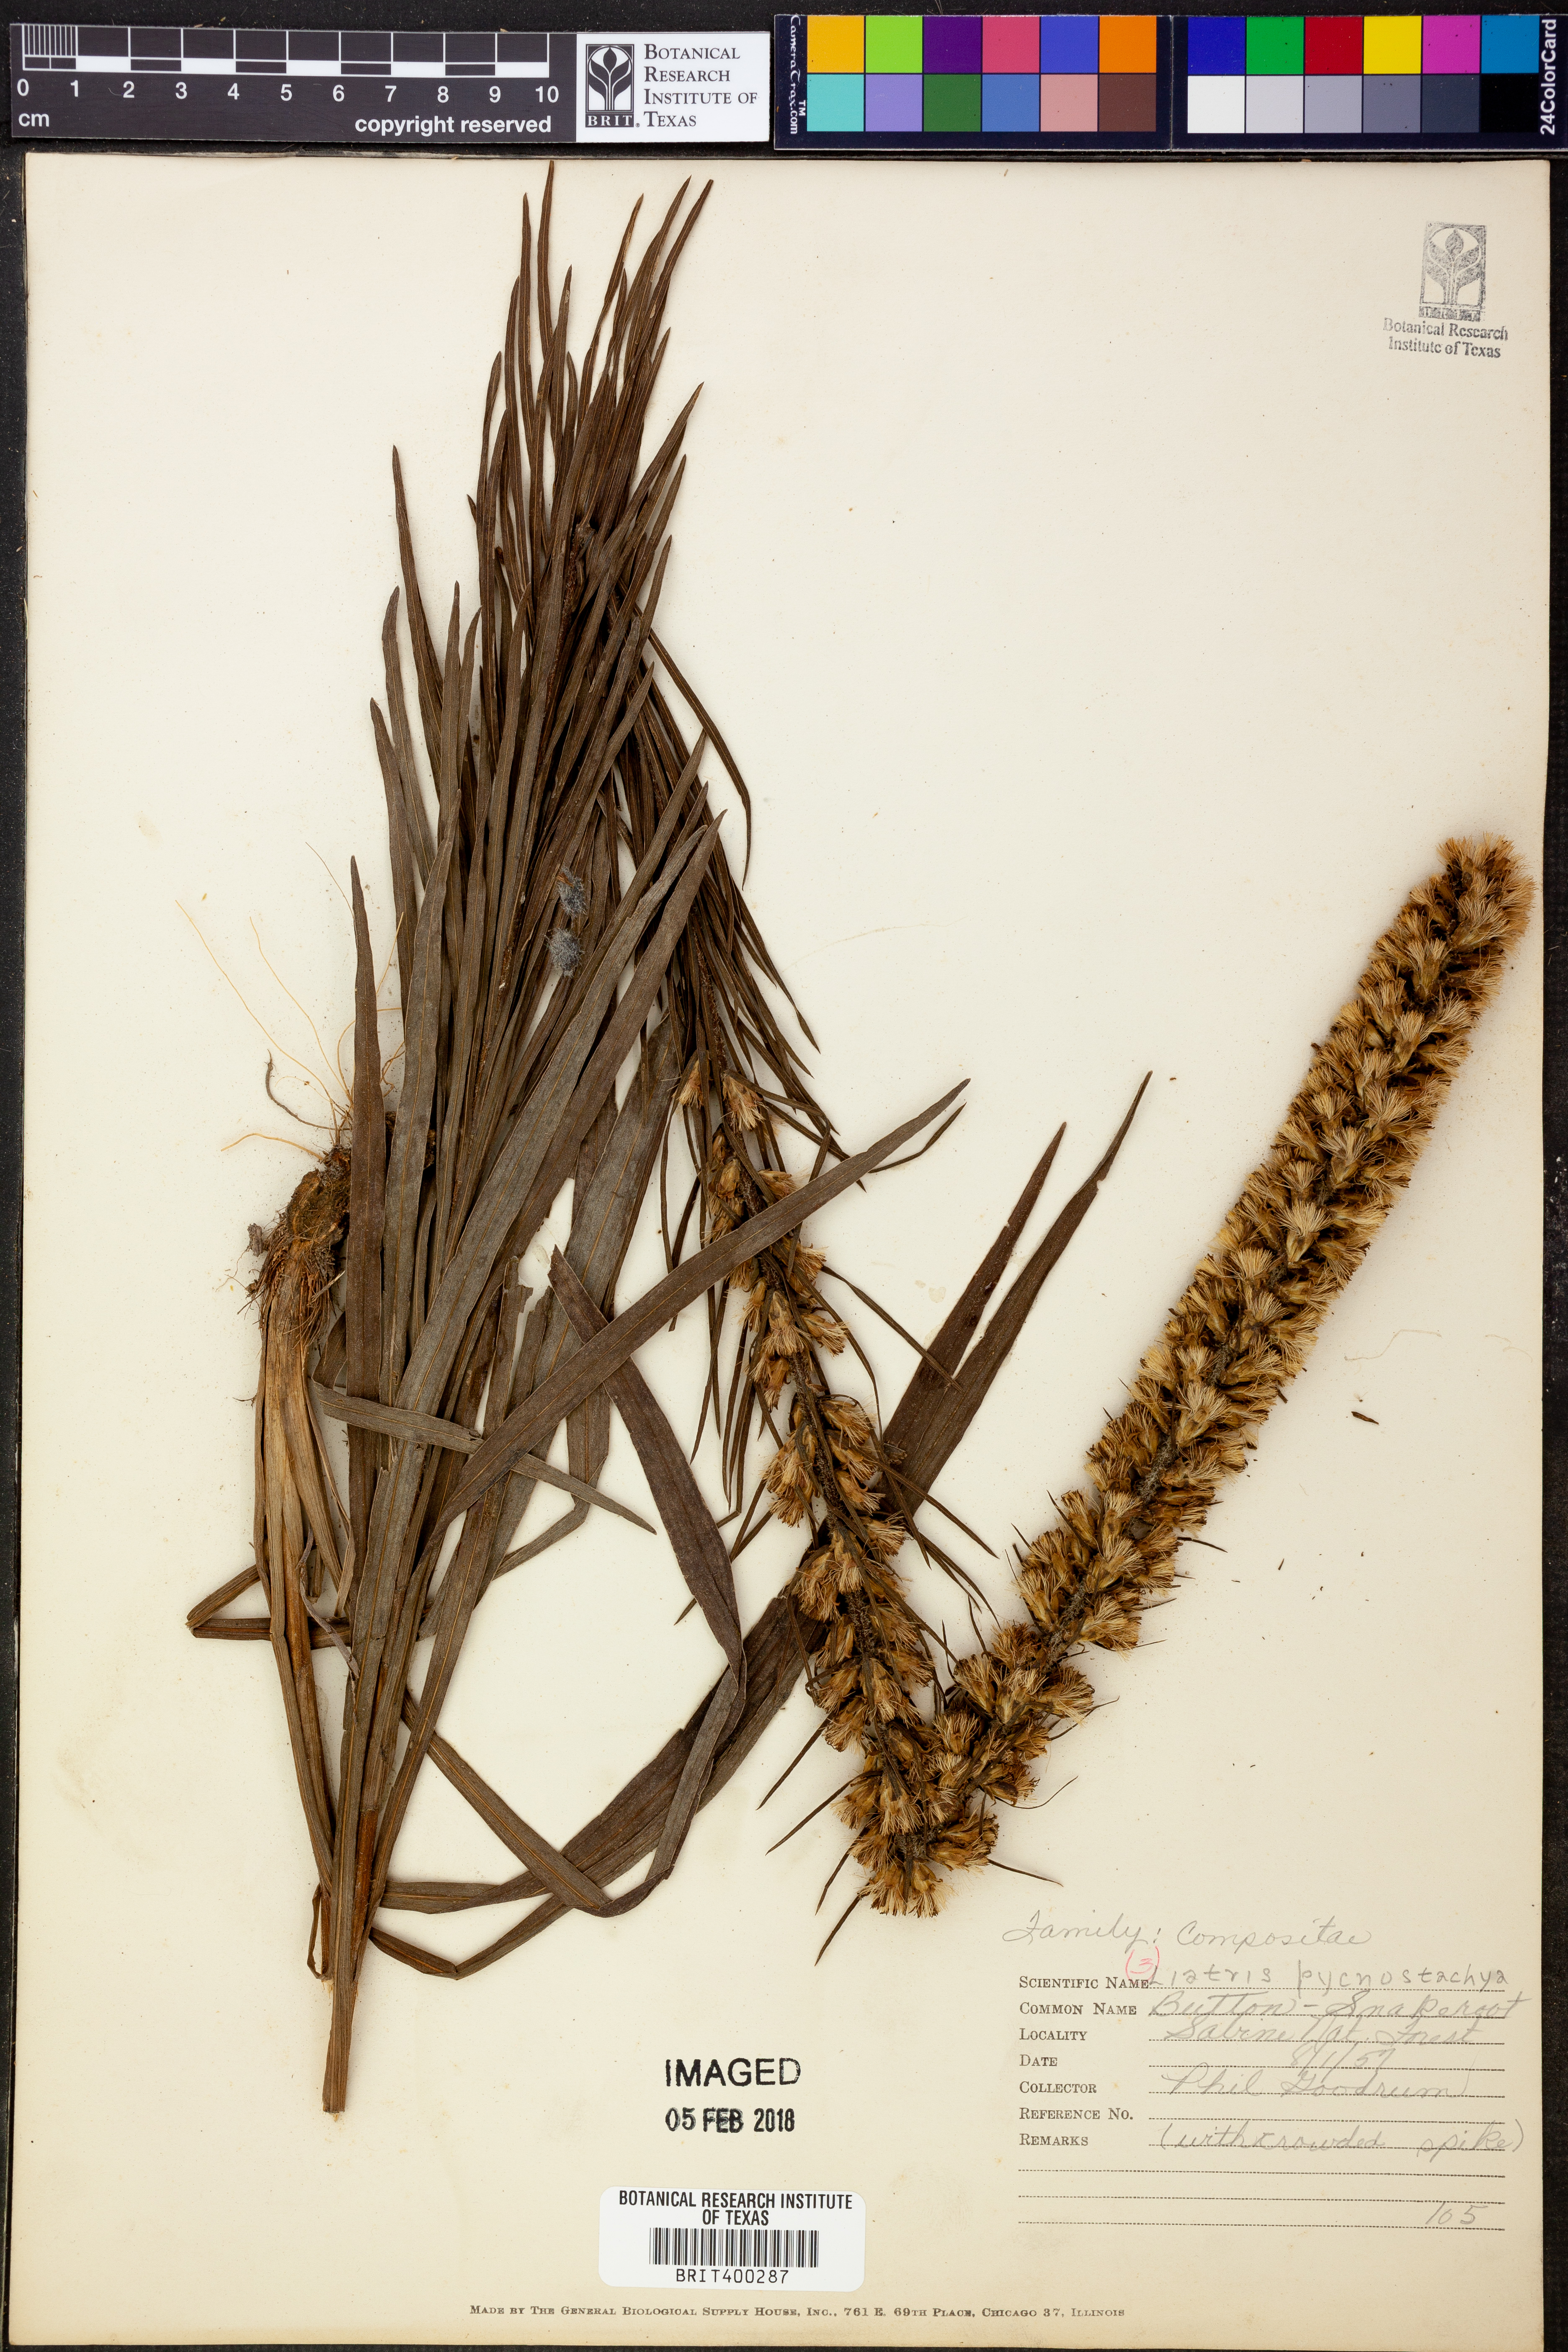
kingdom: Plantae
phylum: Tracheophyta
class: Magnoliopsida
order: Asterales
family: Asteraceae
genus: Liatris
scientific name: Liatris pycnostachya
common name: Cattail gayfeather
